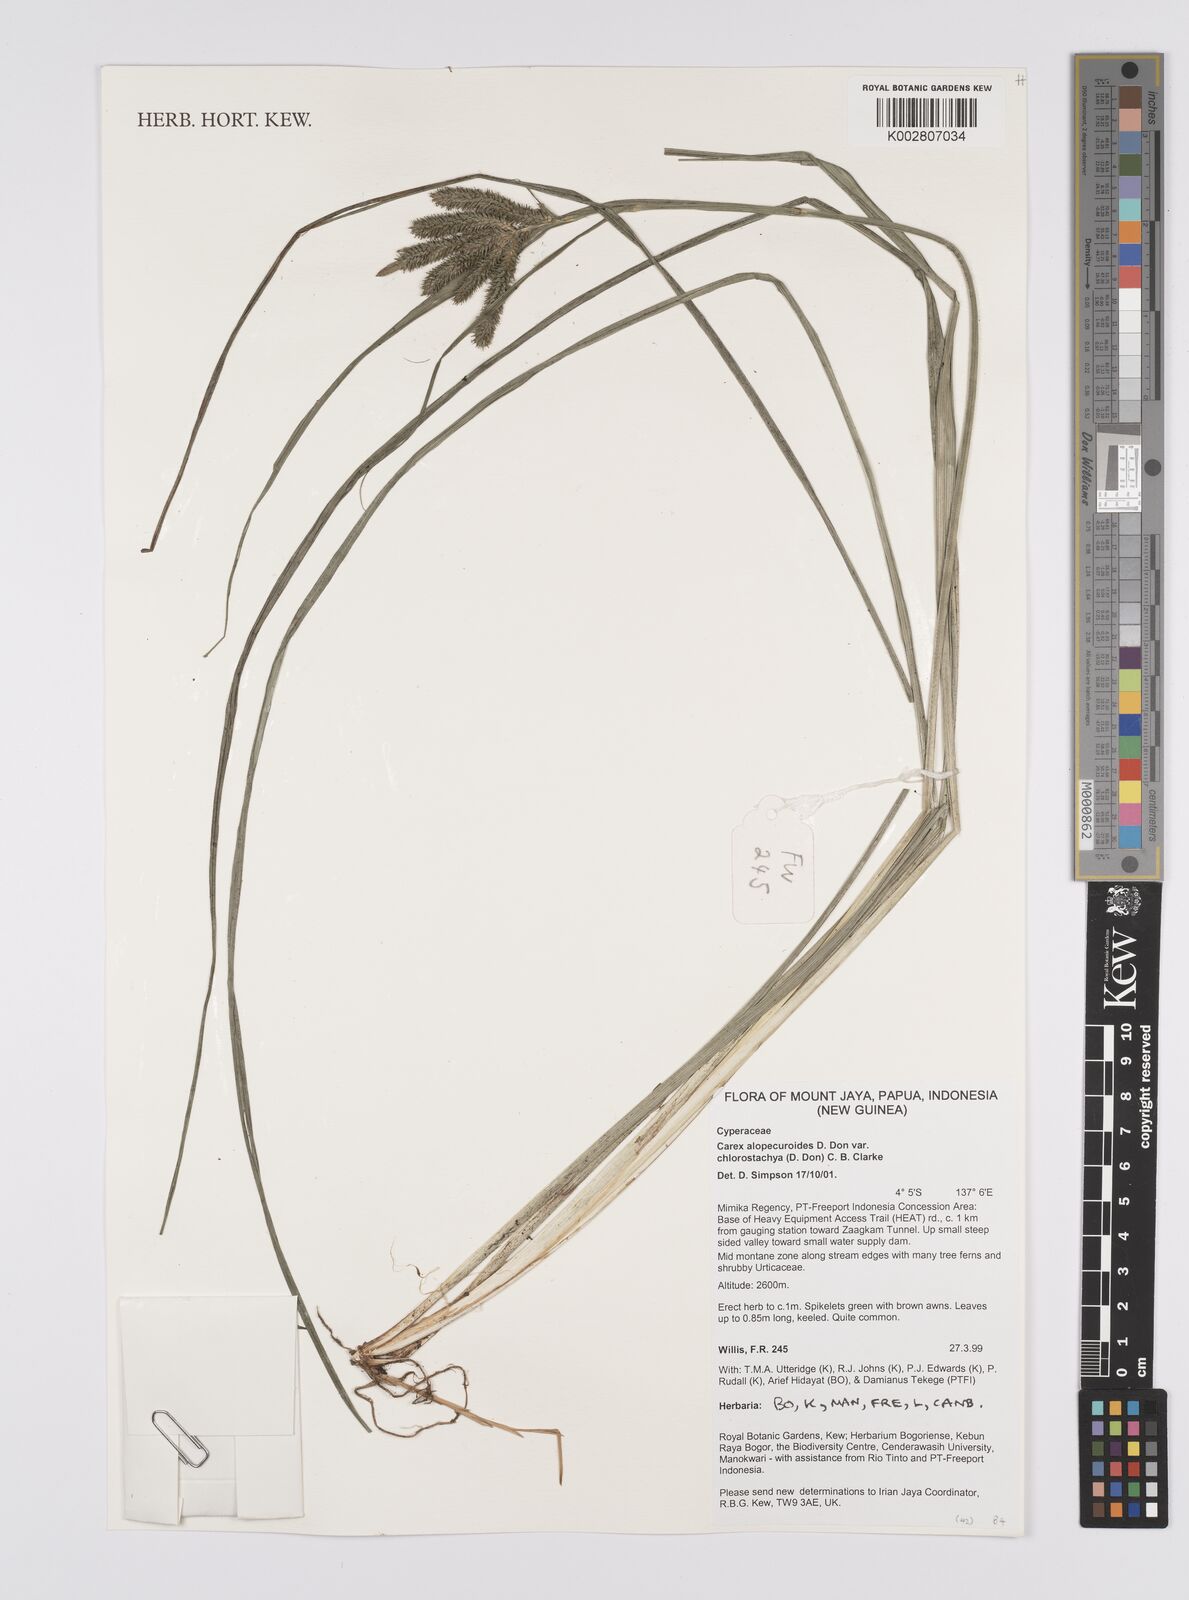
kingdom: Plantae
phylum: Tracheophyta
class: Liliopsida
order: Poales
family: Cyperaceae
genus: Carex
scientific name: Carex alopecuroides
